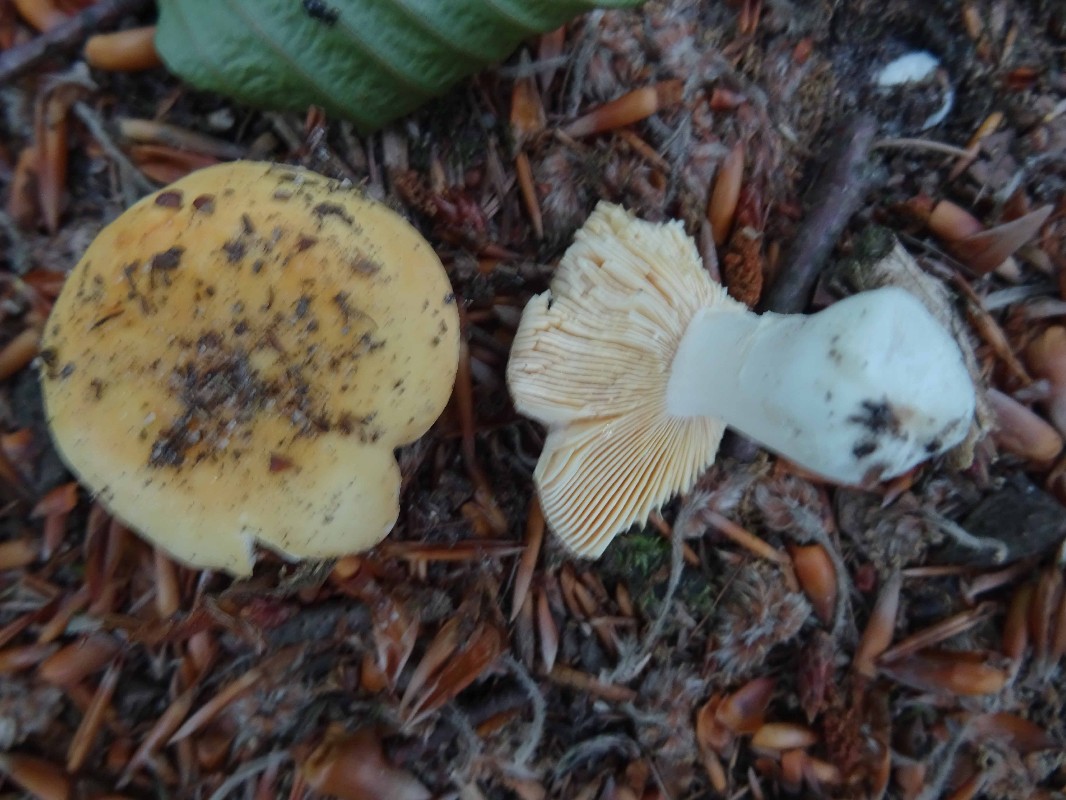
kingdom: Fungi
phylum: Basidiomycota
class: Agaricomycetes
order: Russulales
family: Russulaceae
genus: Russula
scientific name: Russula risigallina
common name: abrikos-skørhat
